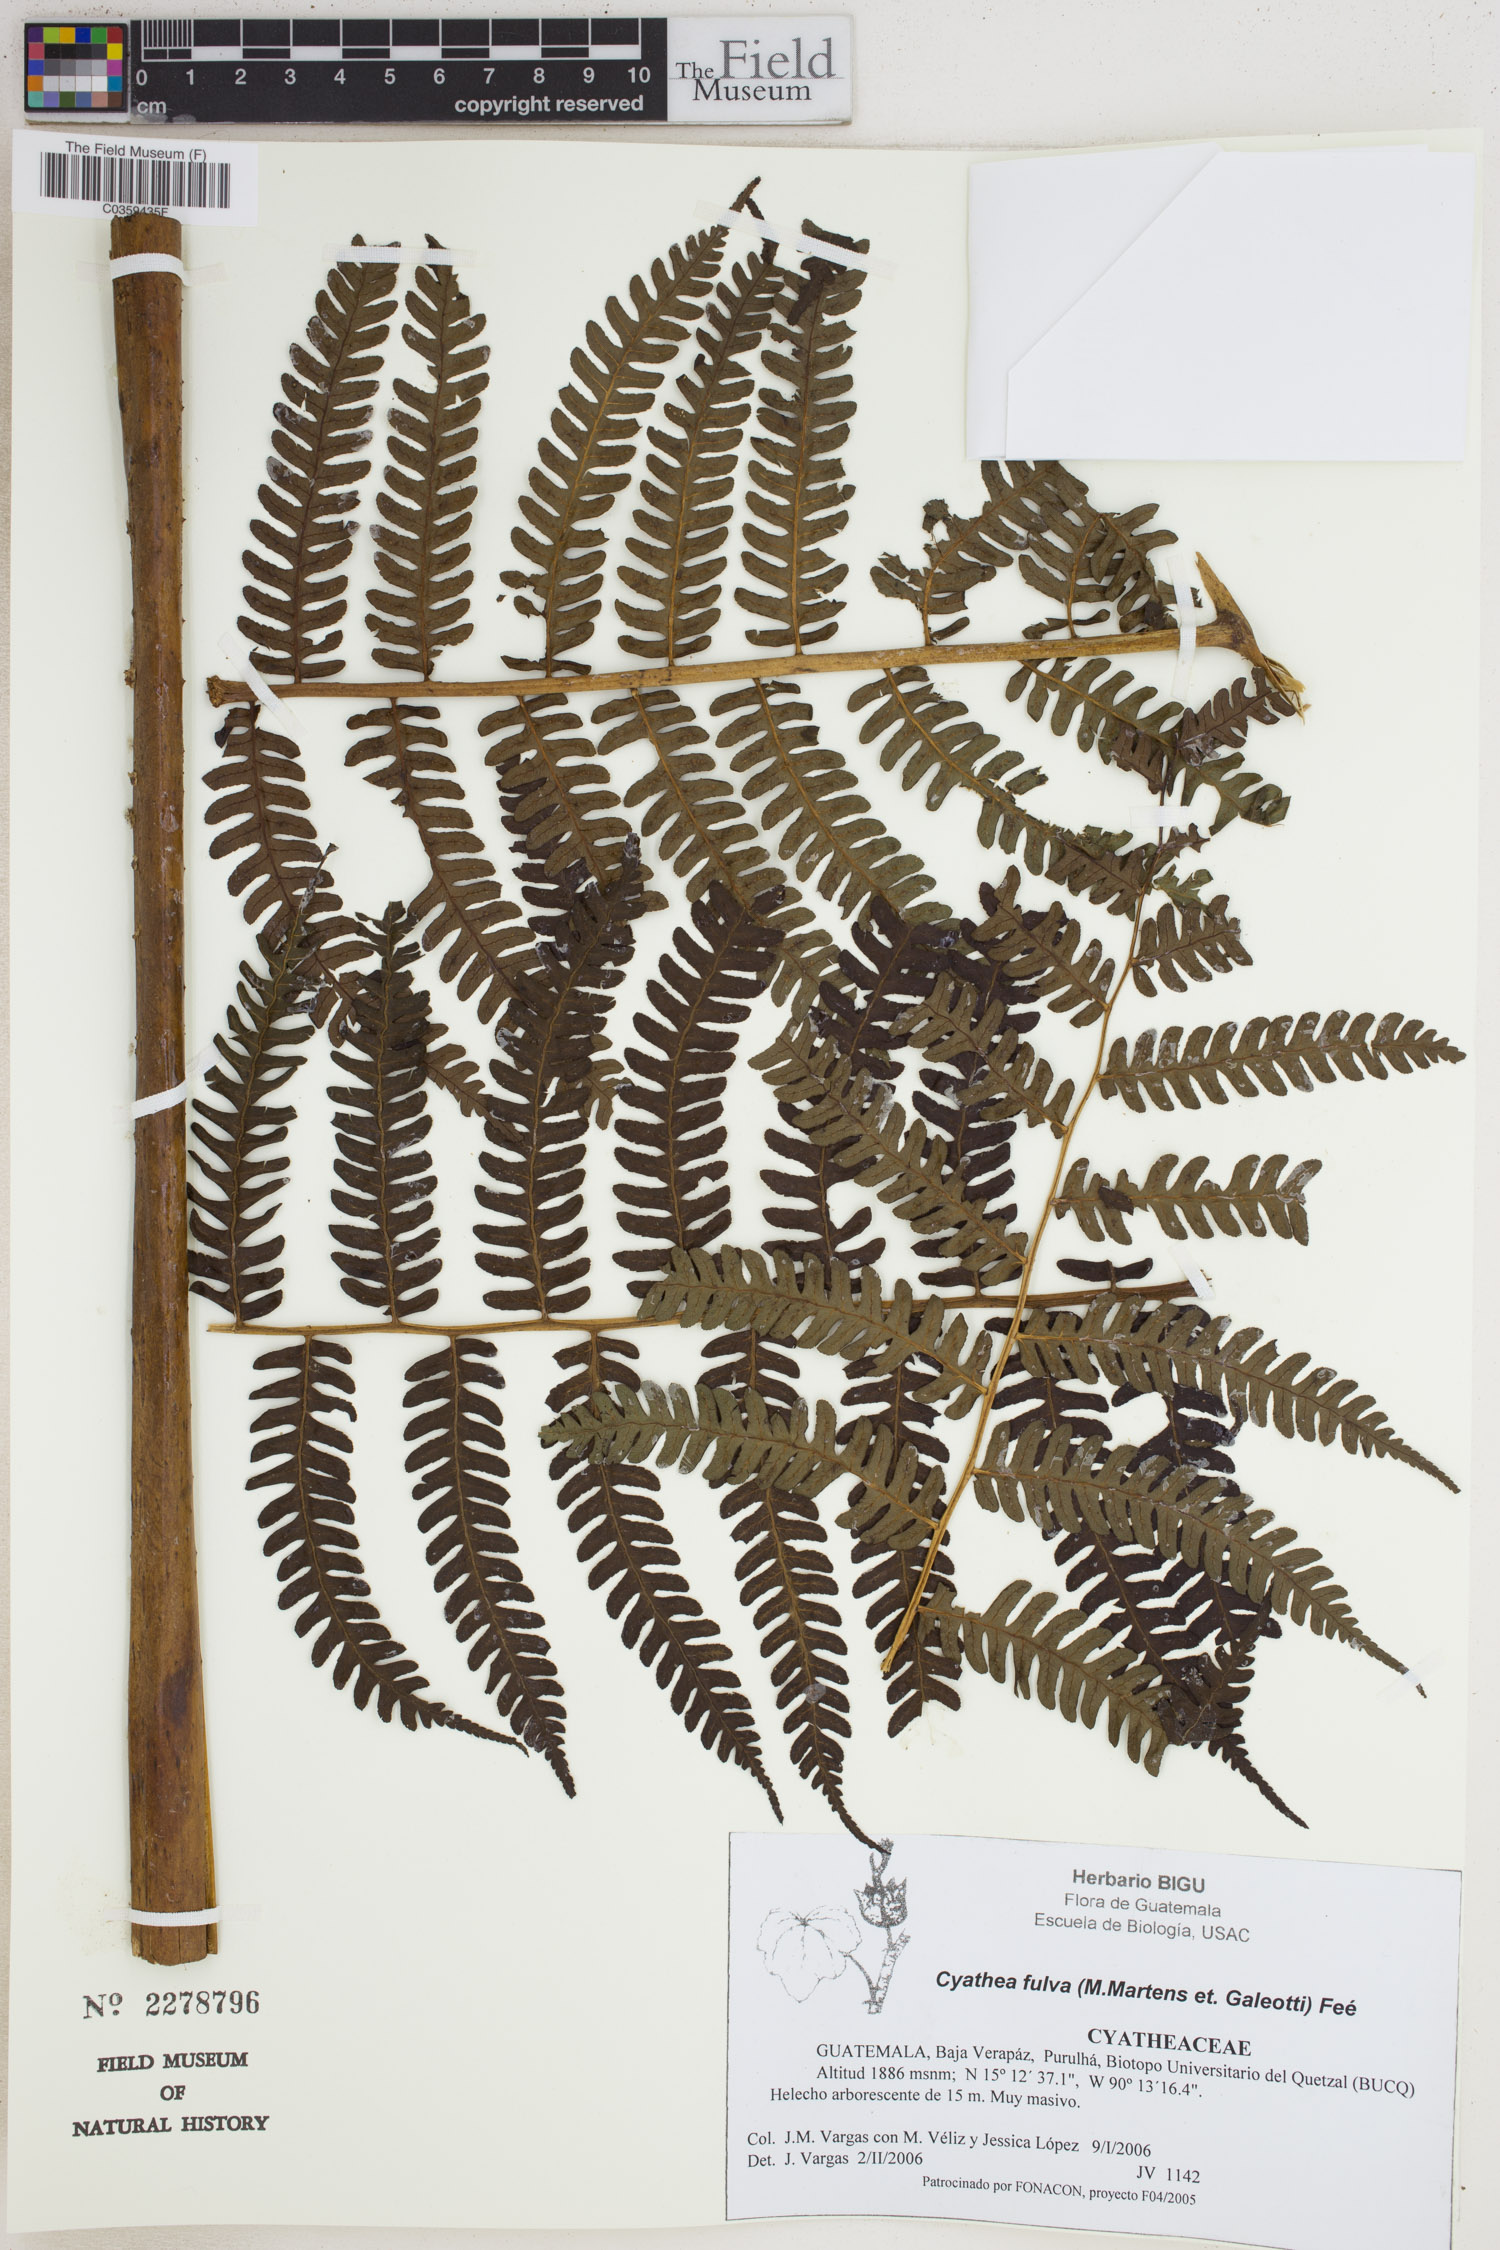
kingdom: Plantae
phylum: Tracheophyta
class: Polypodiopsida
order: Cyatheales
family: Cyatheaceae
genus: Cyathea
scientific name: Cyathea fulva
